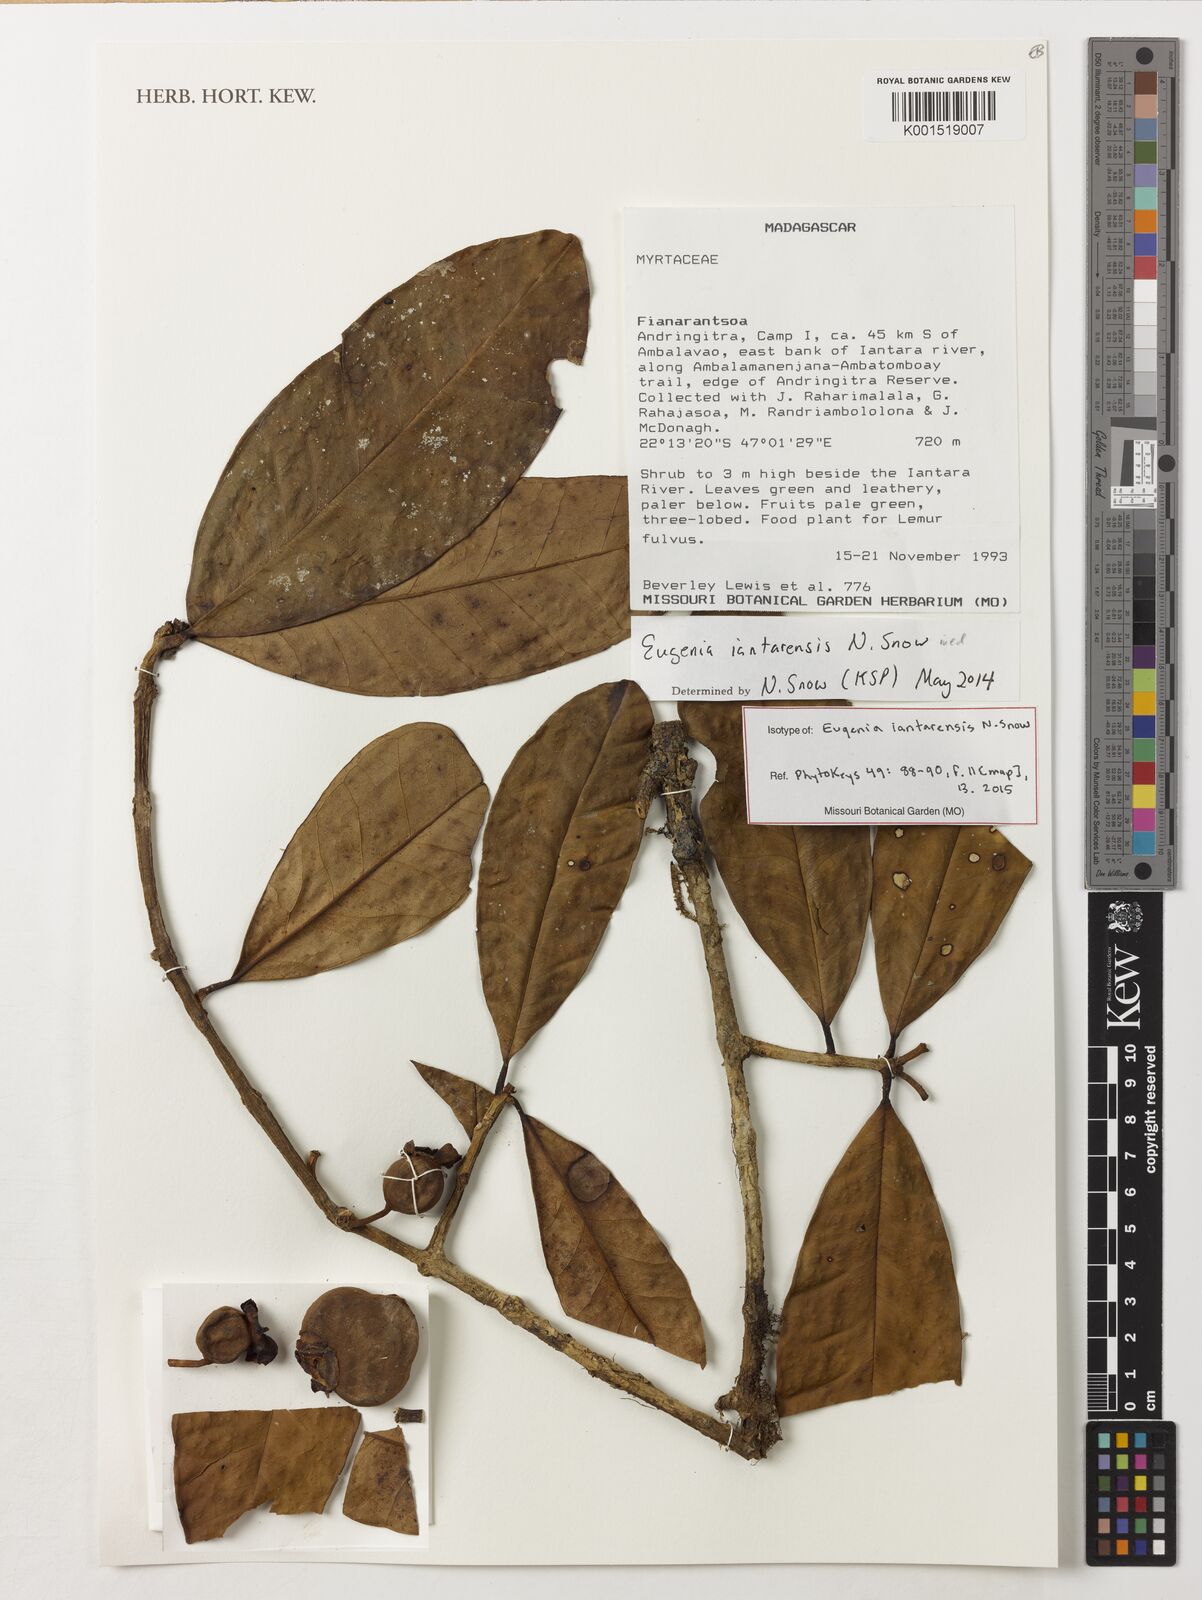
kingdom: Plantae
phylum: Tracheophyta
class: Magnoliopsida
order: Myrtales
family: Myrtaceae
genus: Eugenia
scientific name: Eugenia iantarensis
